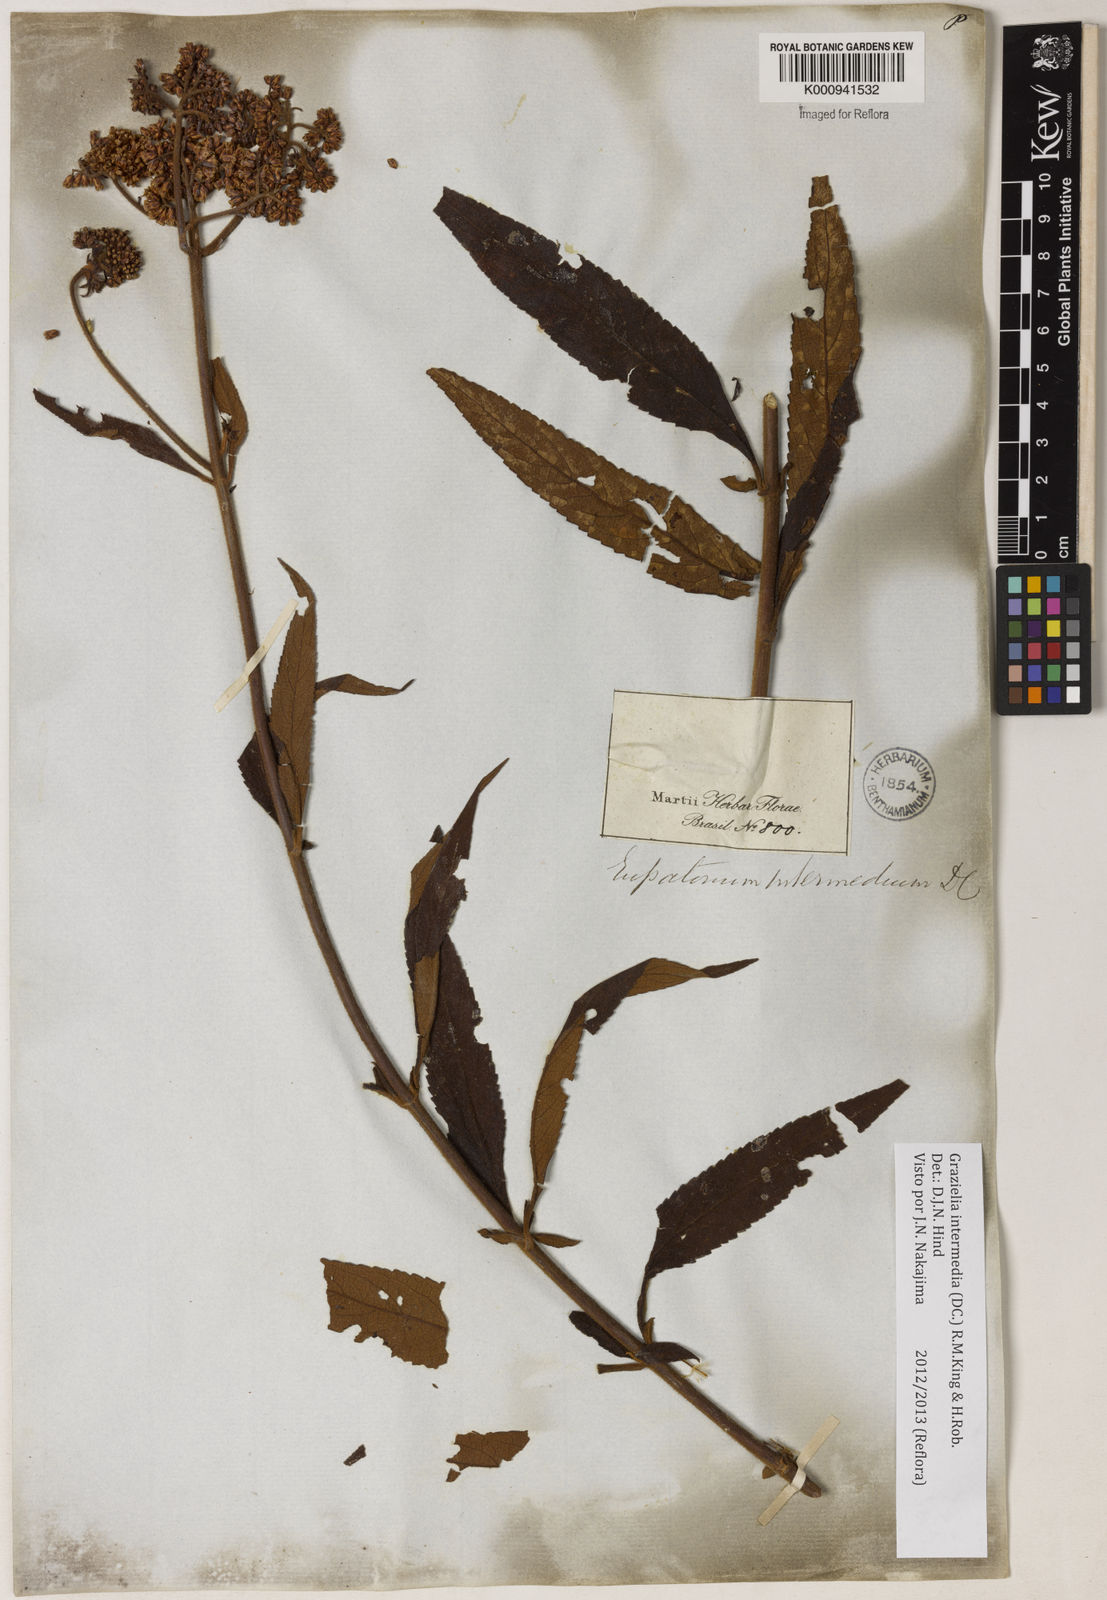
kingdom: Plantae
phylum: Tracheophyta
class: Magnoliopsida
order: Asterales
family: Asteraceae
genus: Grazielia
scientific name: Grazielia intermedia
